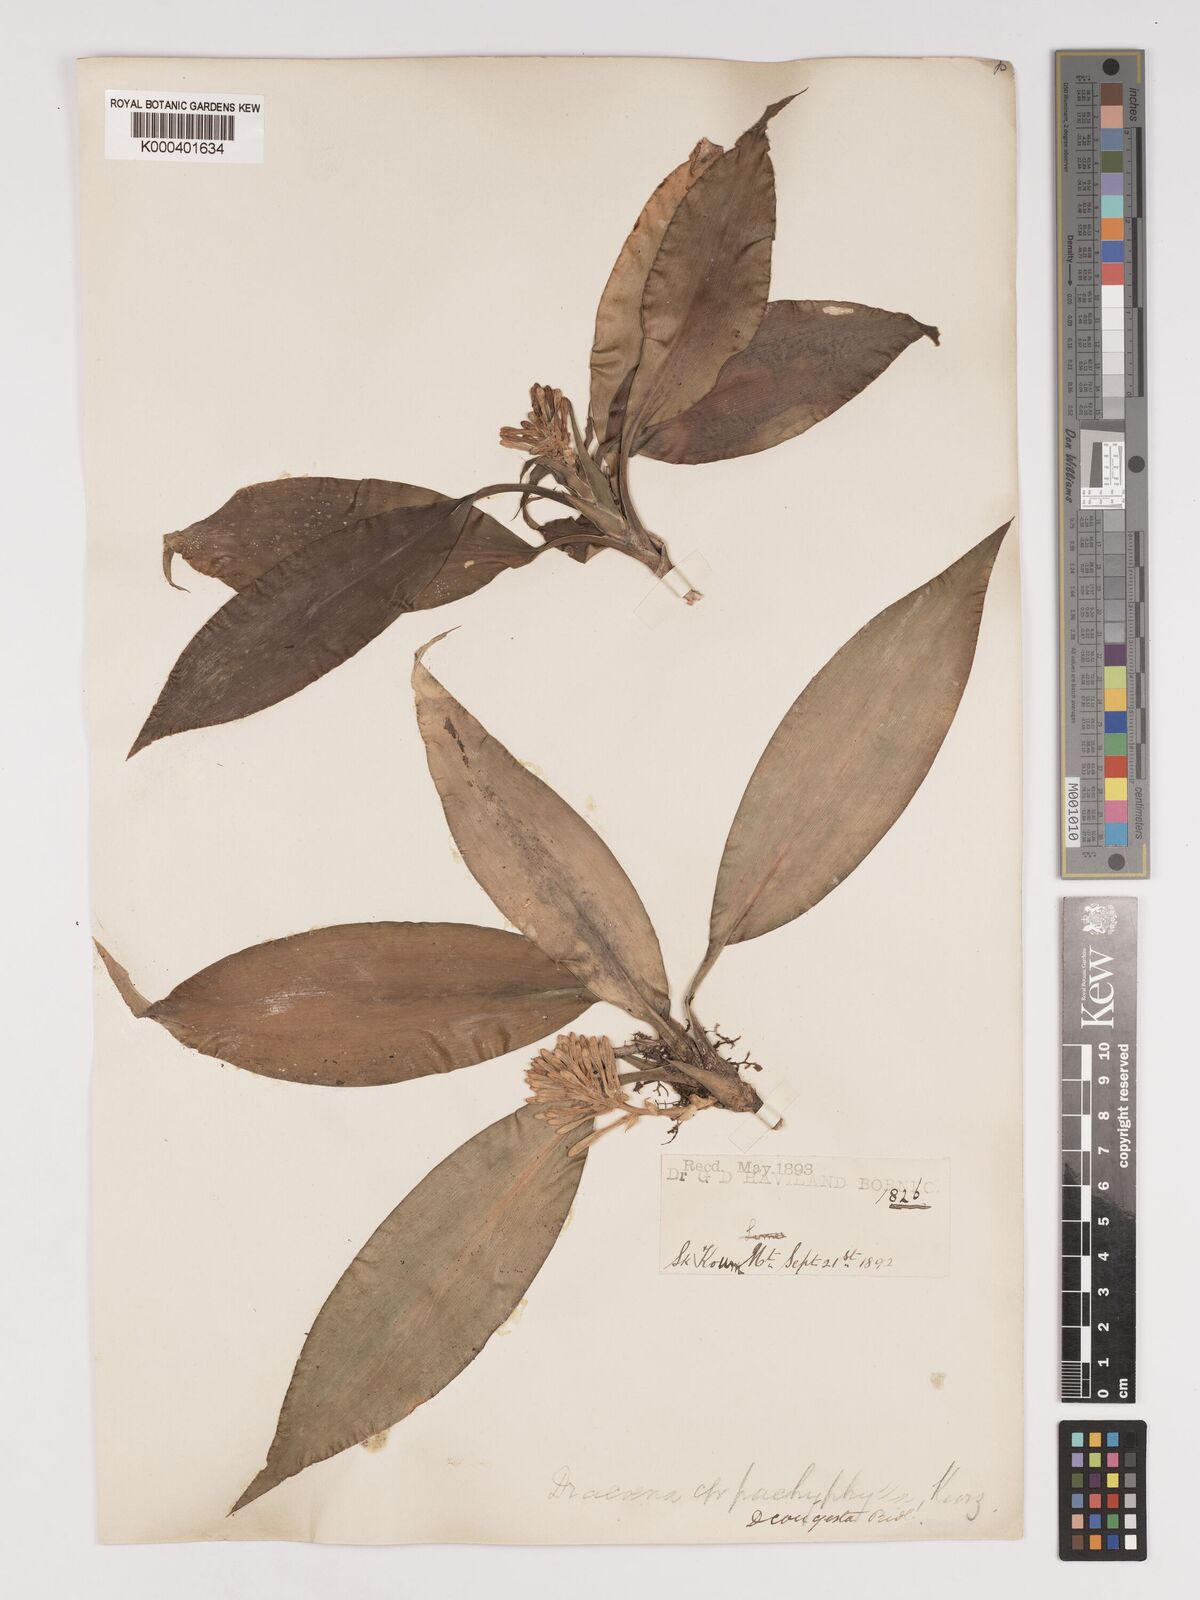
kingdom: Plantae
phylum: Tracheophyta
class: Liliopsida
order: Asparagales
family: Asparagaceae
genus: Dracaena
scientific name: Dracaena chiniana
